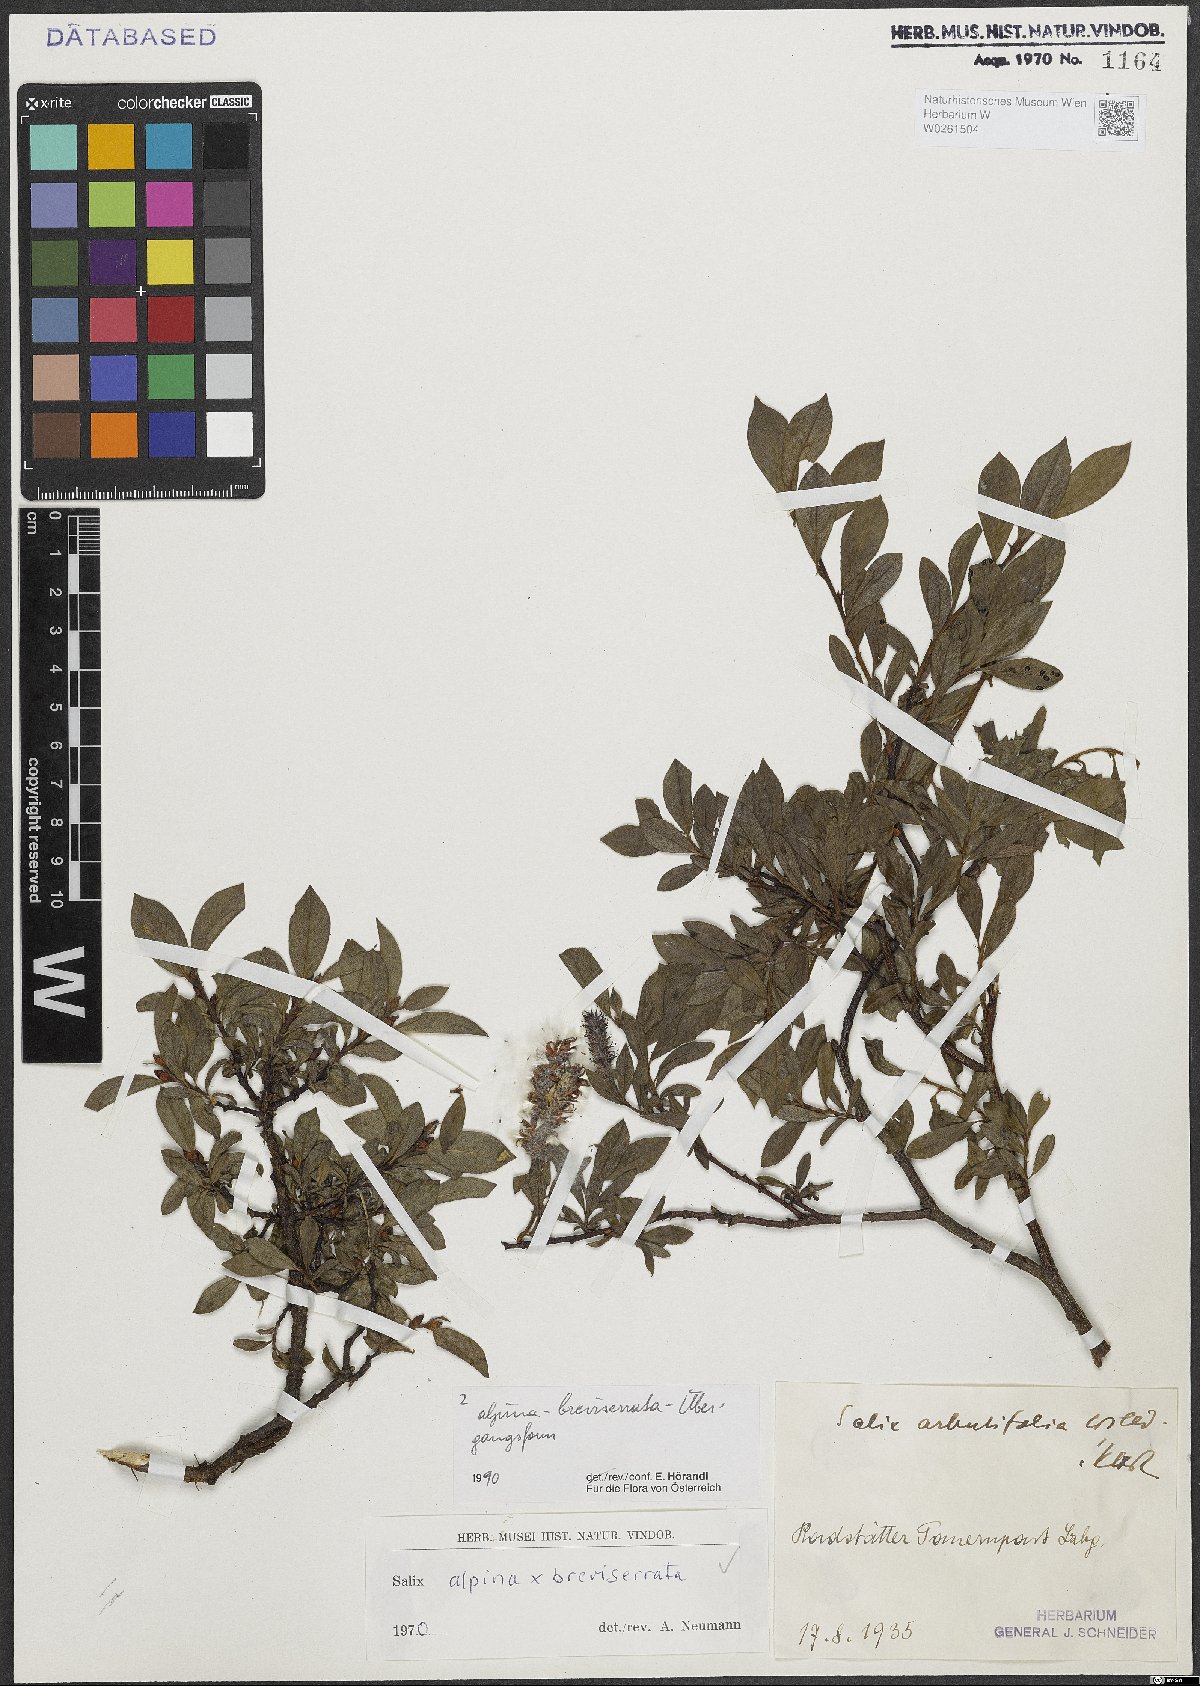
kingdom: Plantae
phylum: Tracheophyta
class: Magnoliopsida
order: Malpighiales
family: Salicaceae
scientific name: Salicaceae
